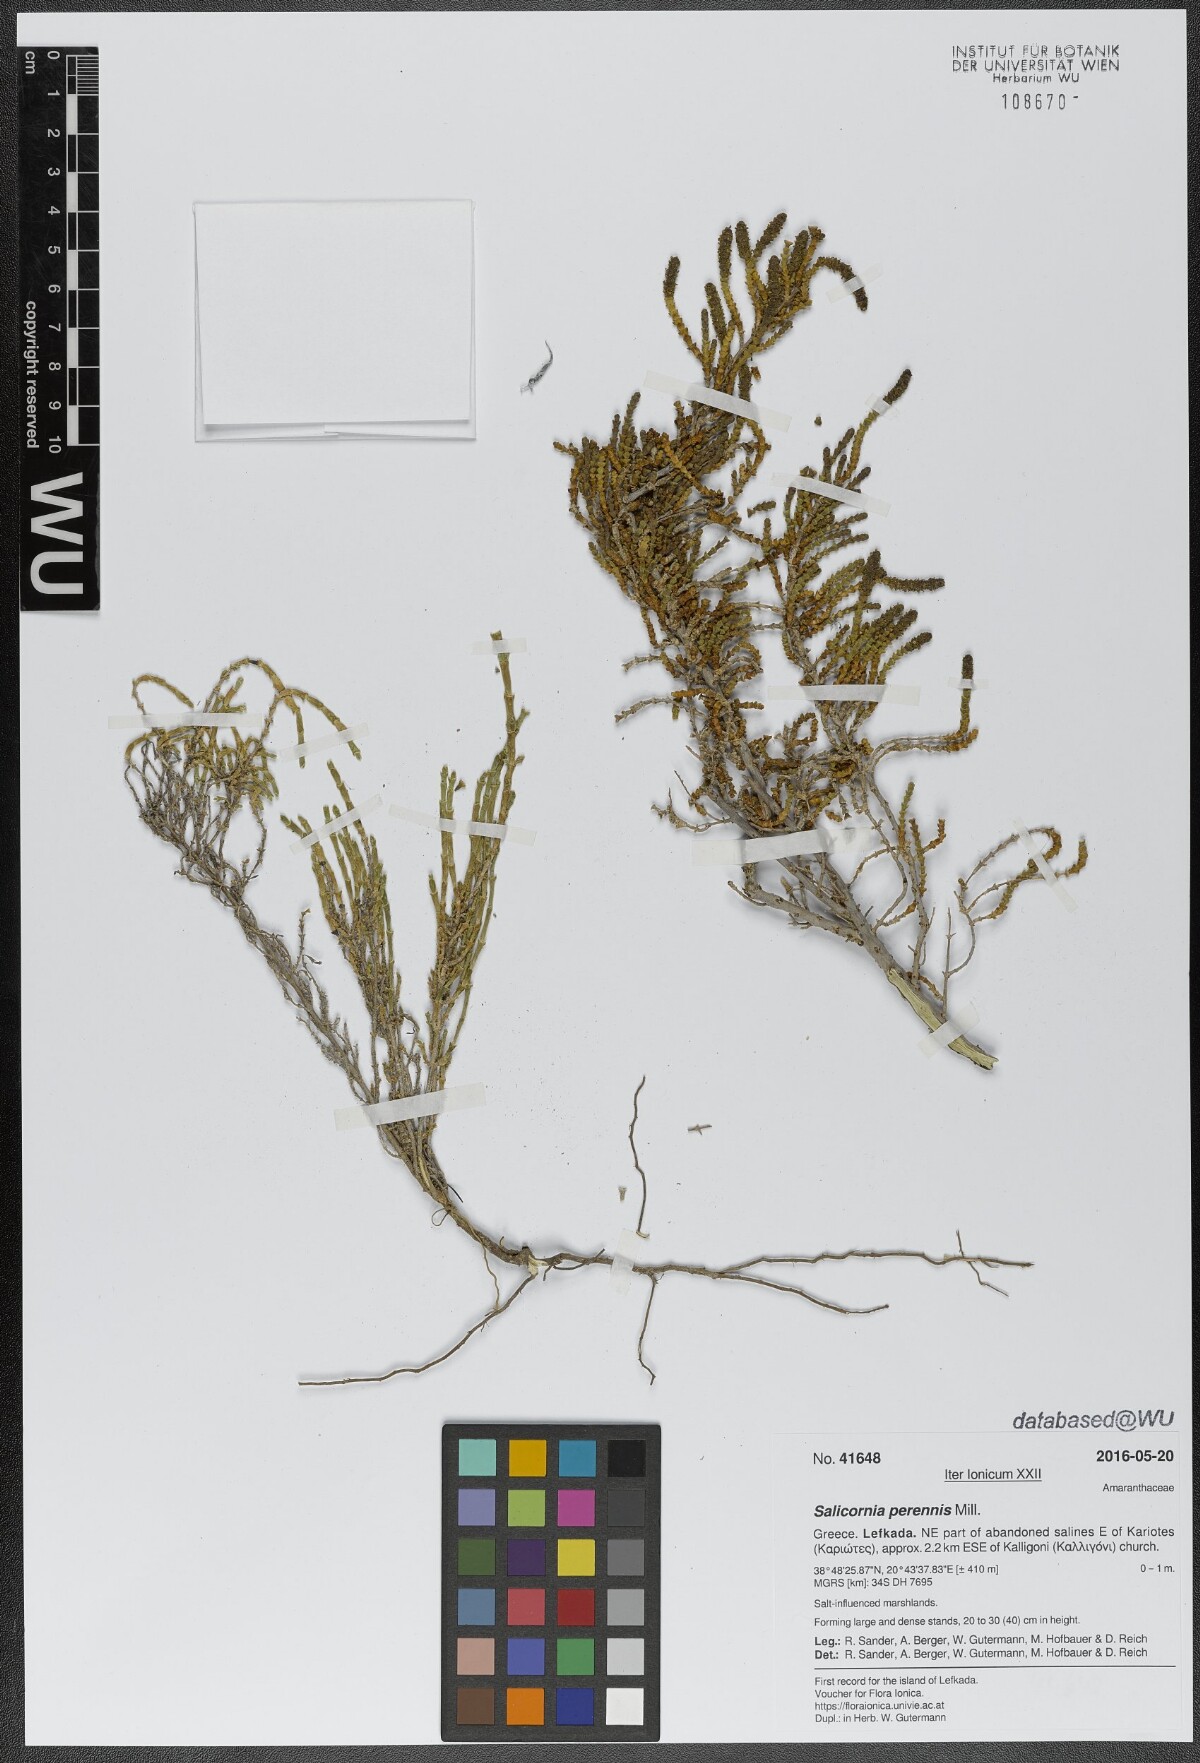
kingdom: Plantae
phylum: Tracheophyta
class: Magnoliopsida
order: Caryophyllales
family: Amaranthaceae
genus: Salicornia
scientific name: Salicornia perennis
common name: Chicken claws
